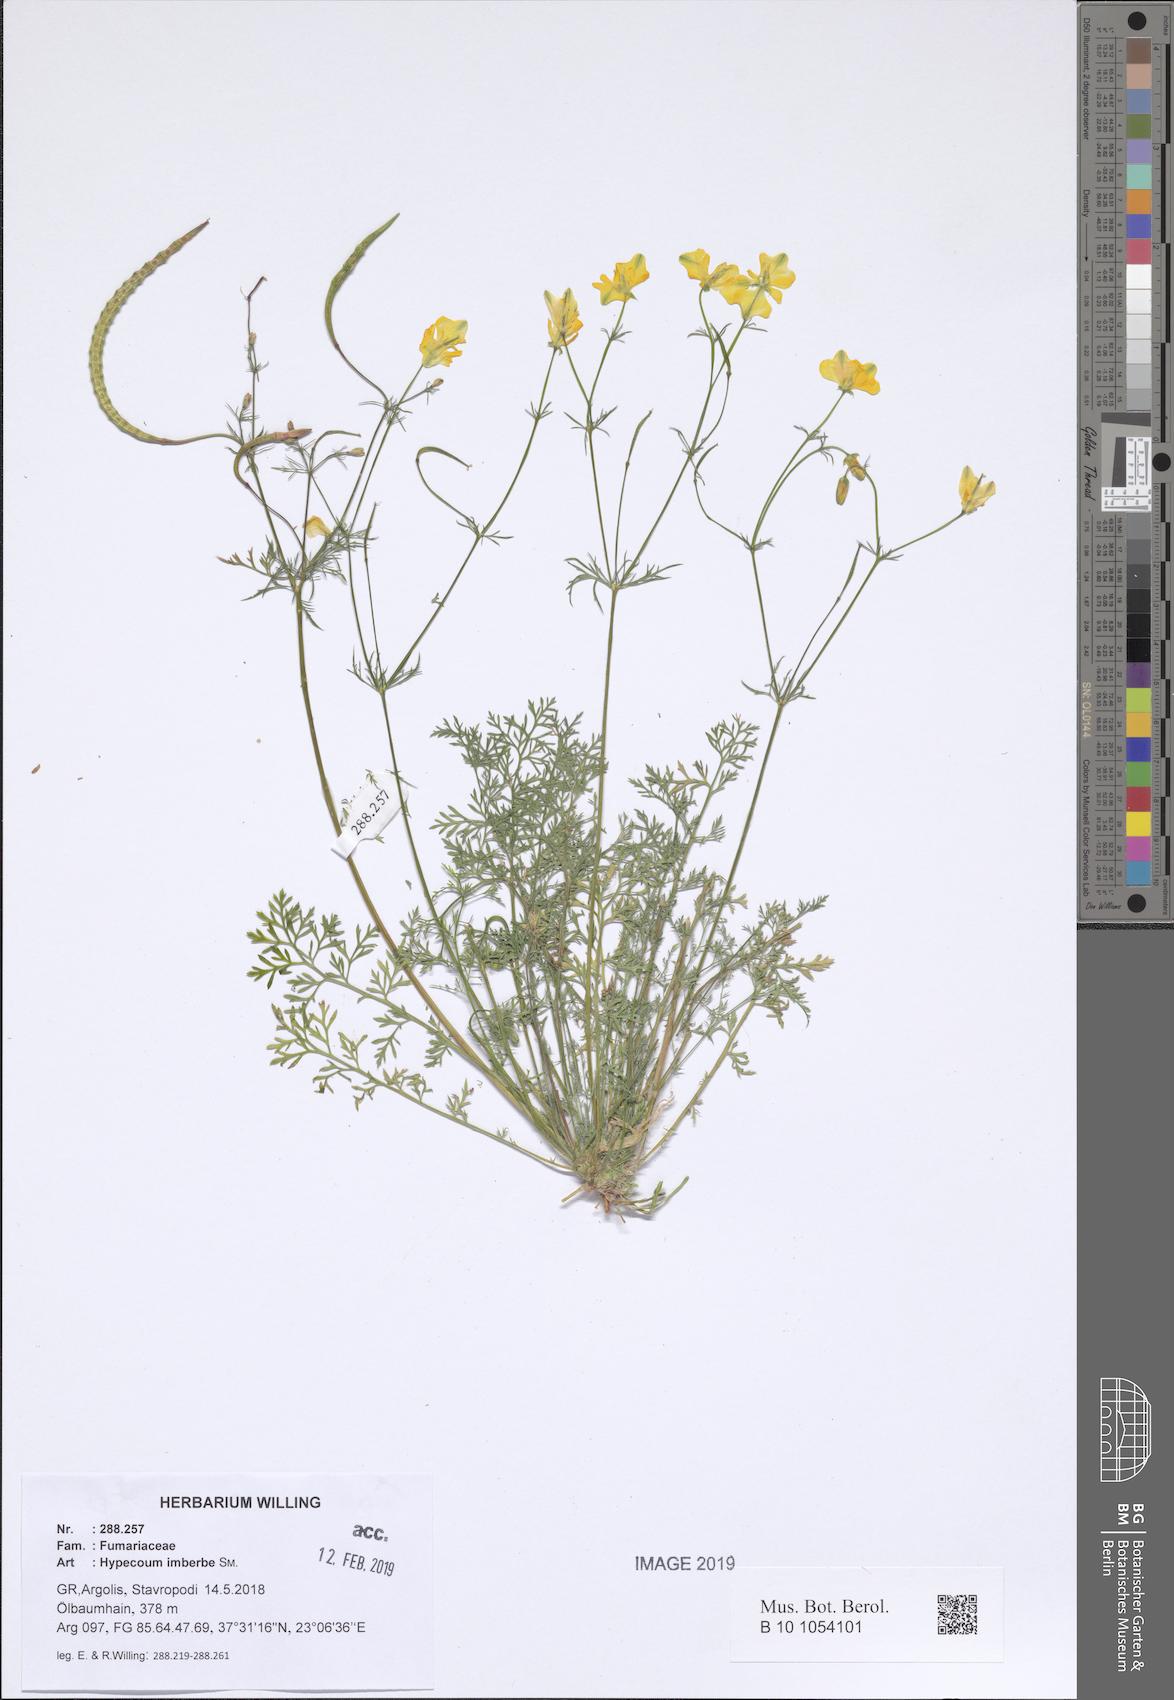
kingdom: Plantae
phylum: Tracheophyta
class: Magnoliopsida
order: Ranunculales
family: Papaveraceae
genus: Hypecoum
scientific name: Hypecoum imberbe
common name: Sicklefruit hypecoum
